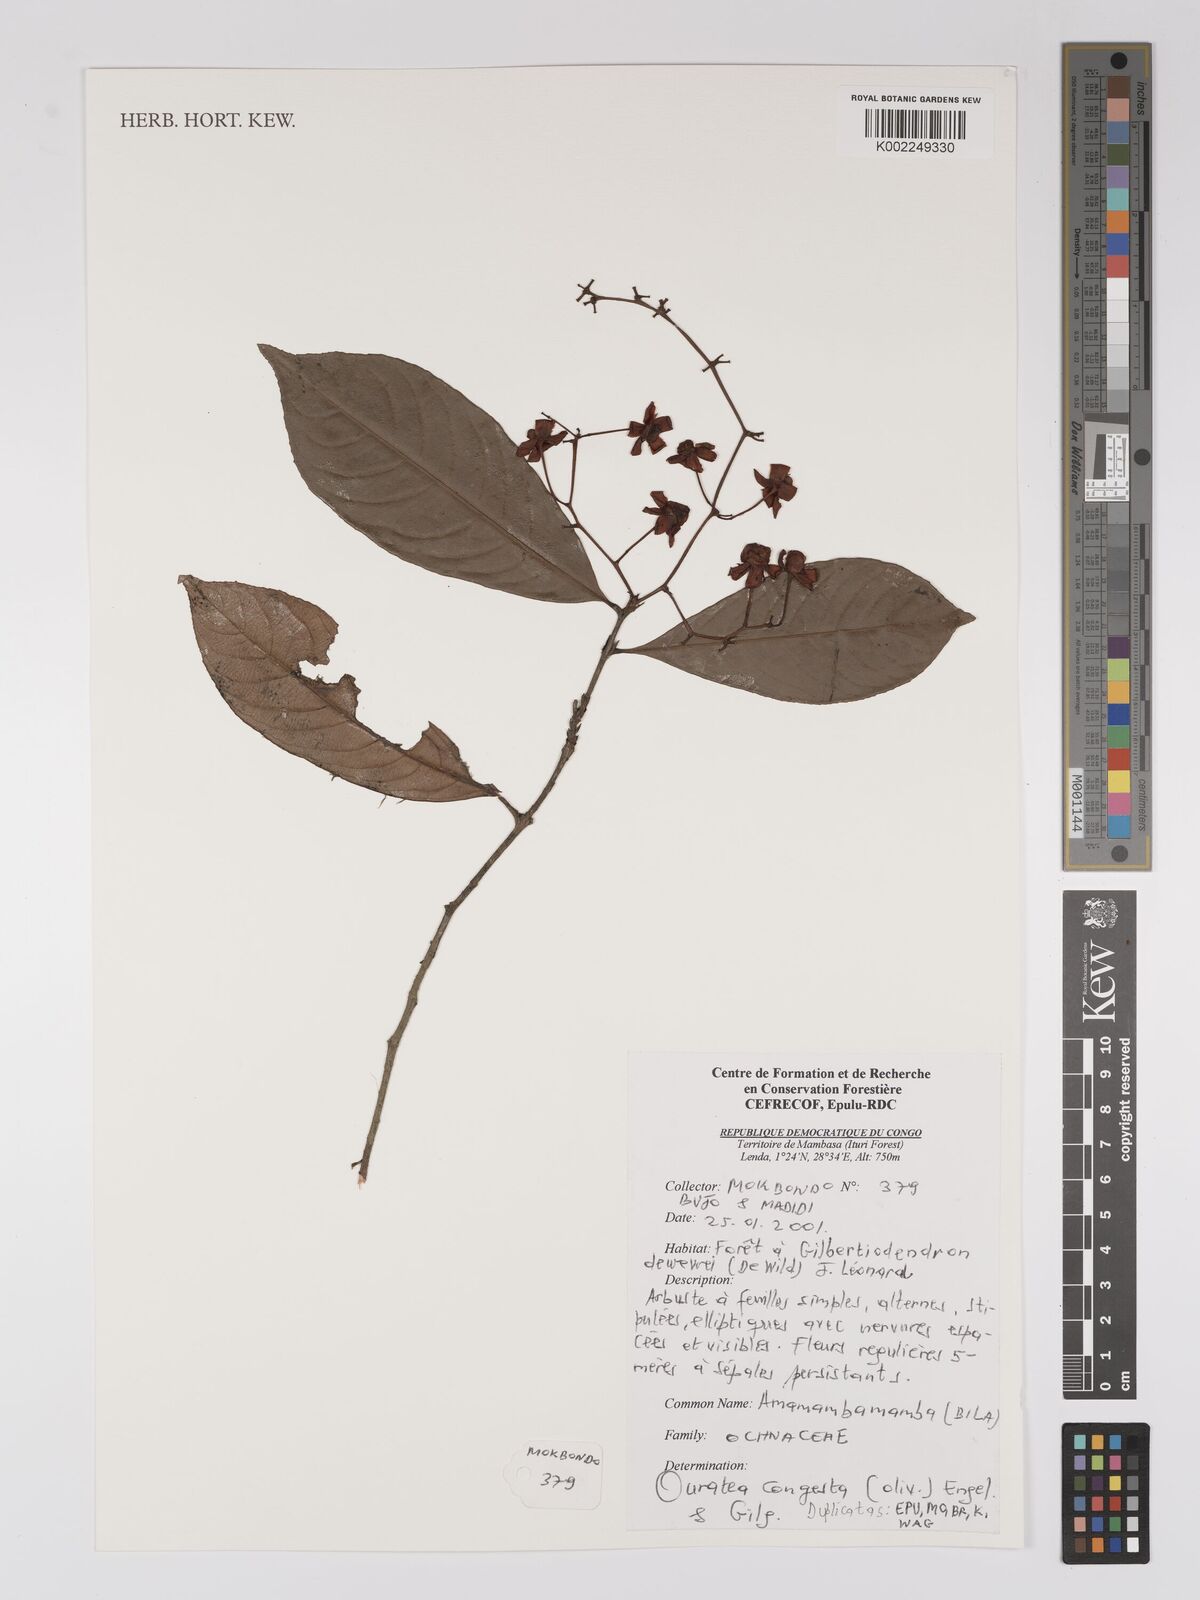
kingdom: Plantae
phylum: Tracheophyta
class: Magnoliopsida
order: Malpighiales
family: Ochnaceae
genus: Campylospermum
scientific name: Campylospermum congestum
